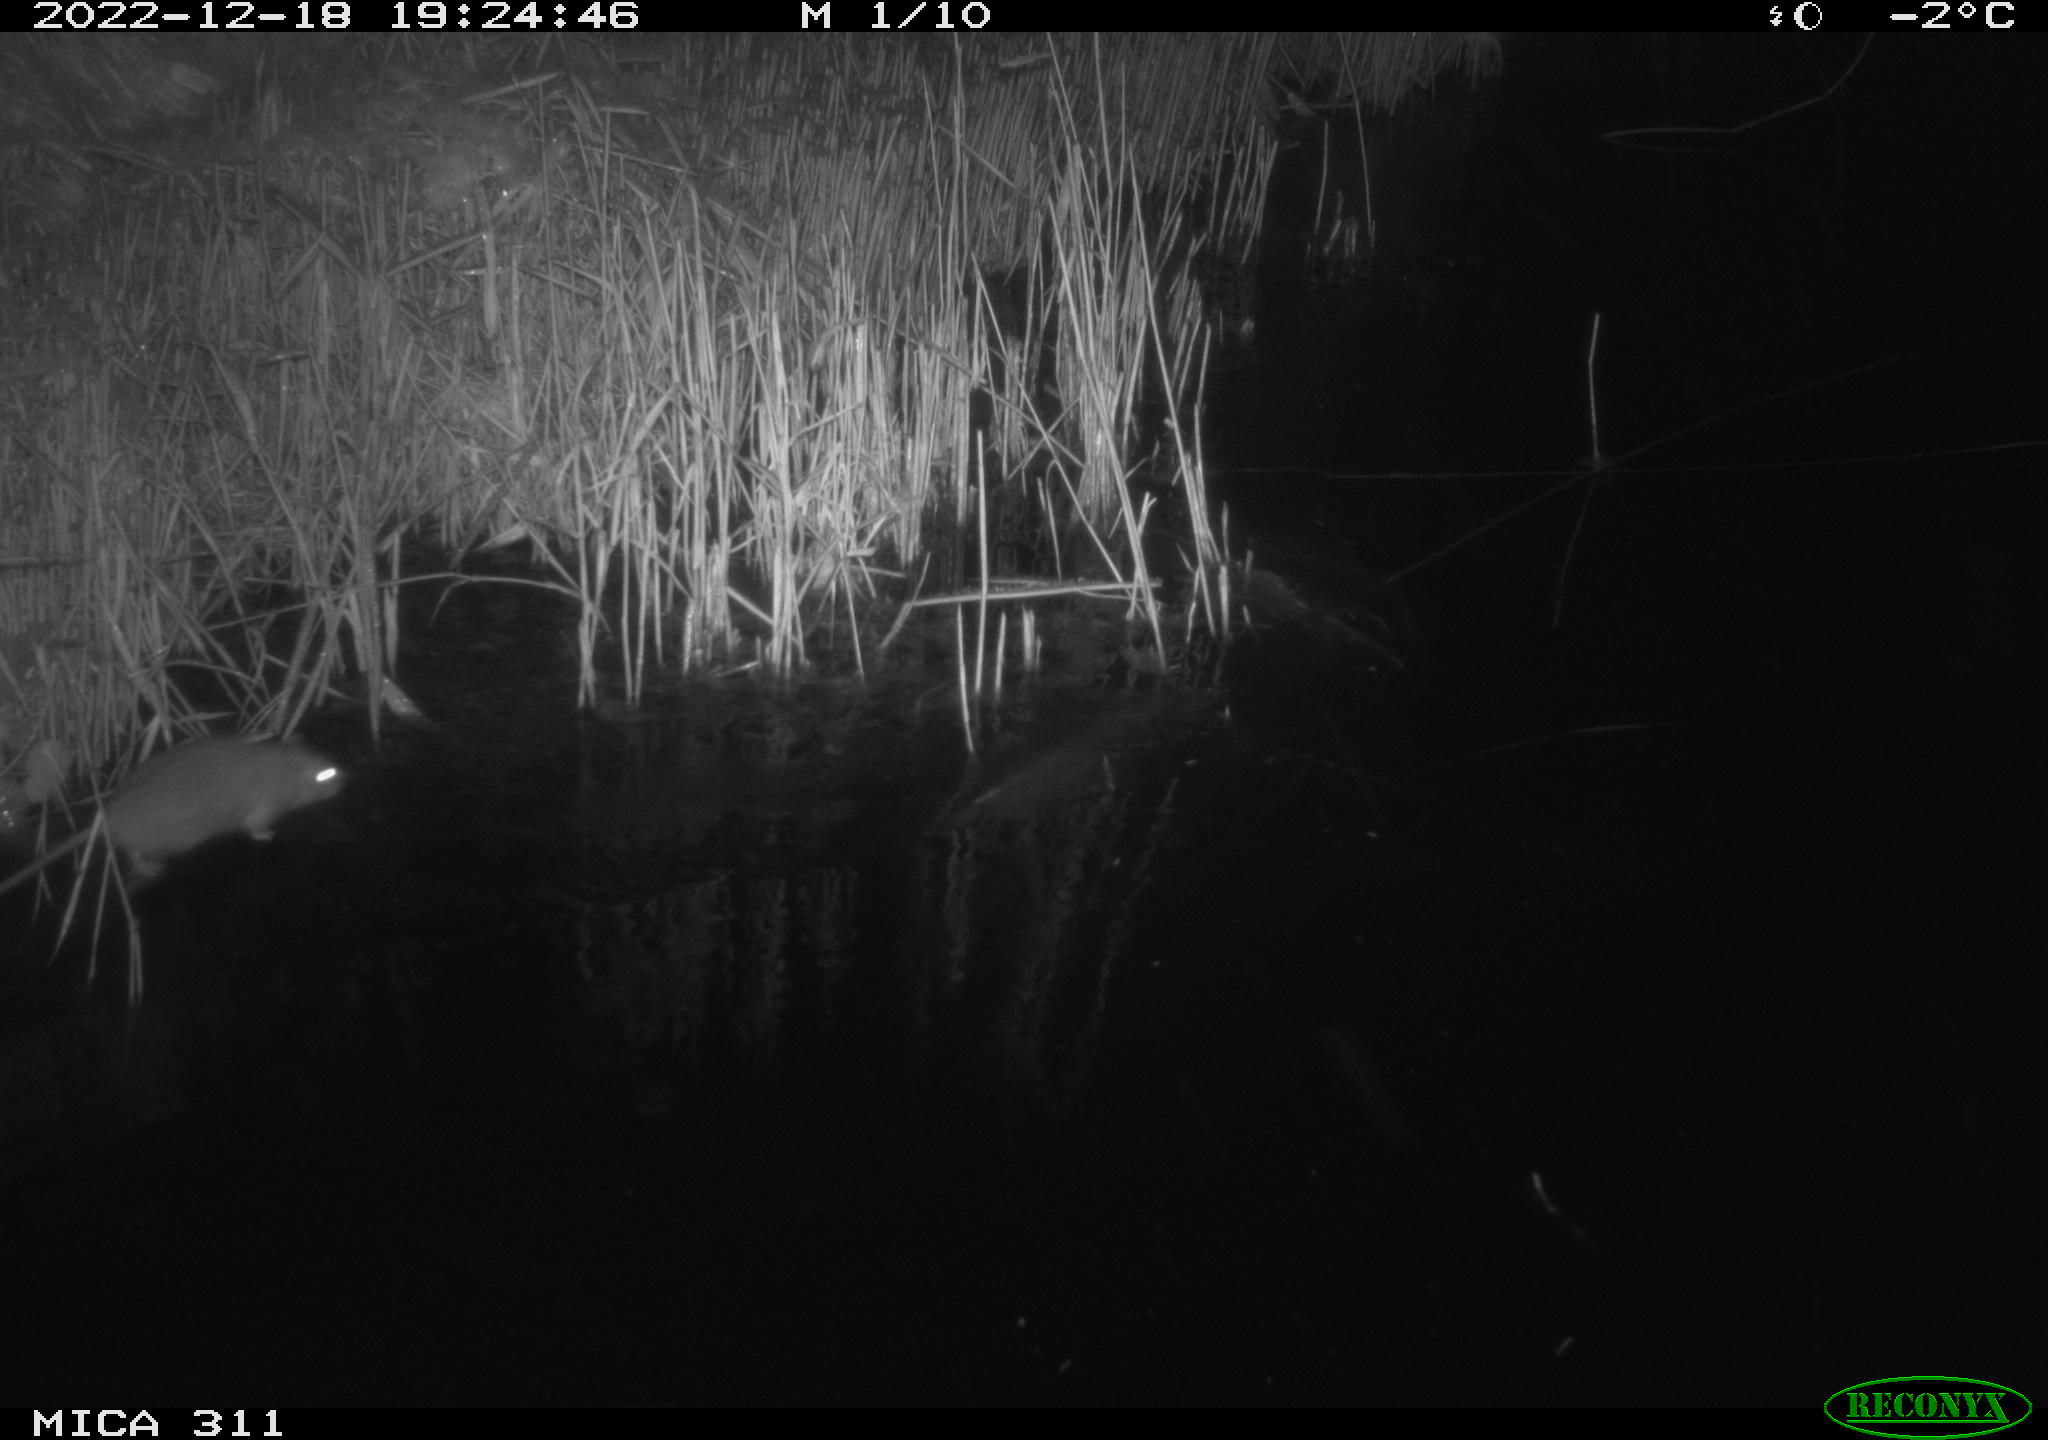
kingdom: Animalia
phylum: Chordata
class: Mammalia
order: Rodentia
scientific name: Rodentia
